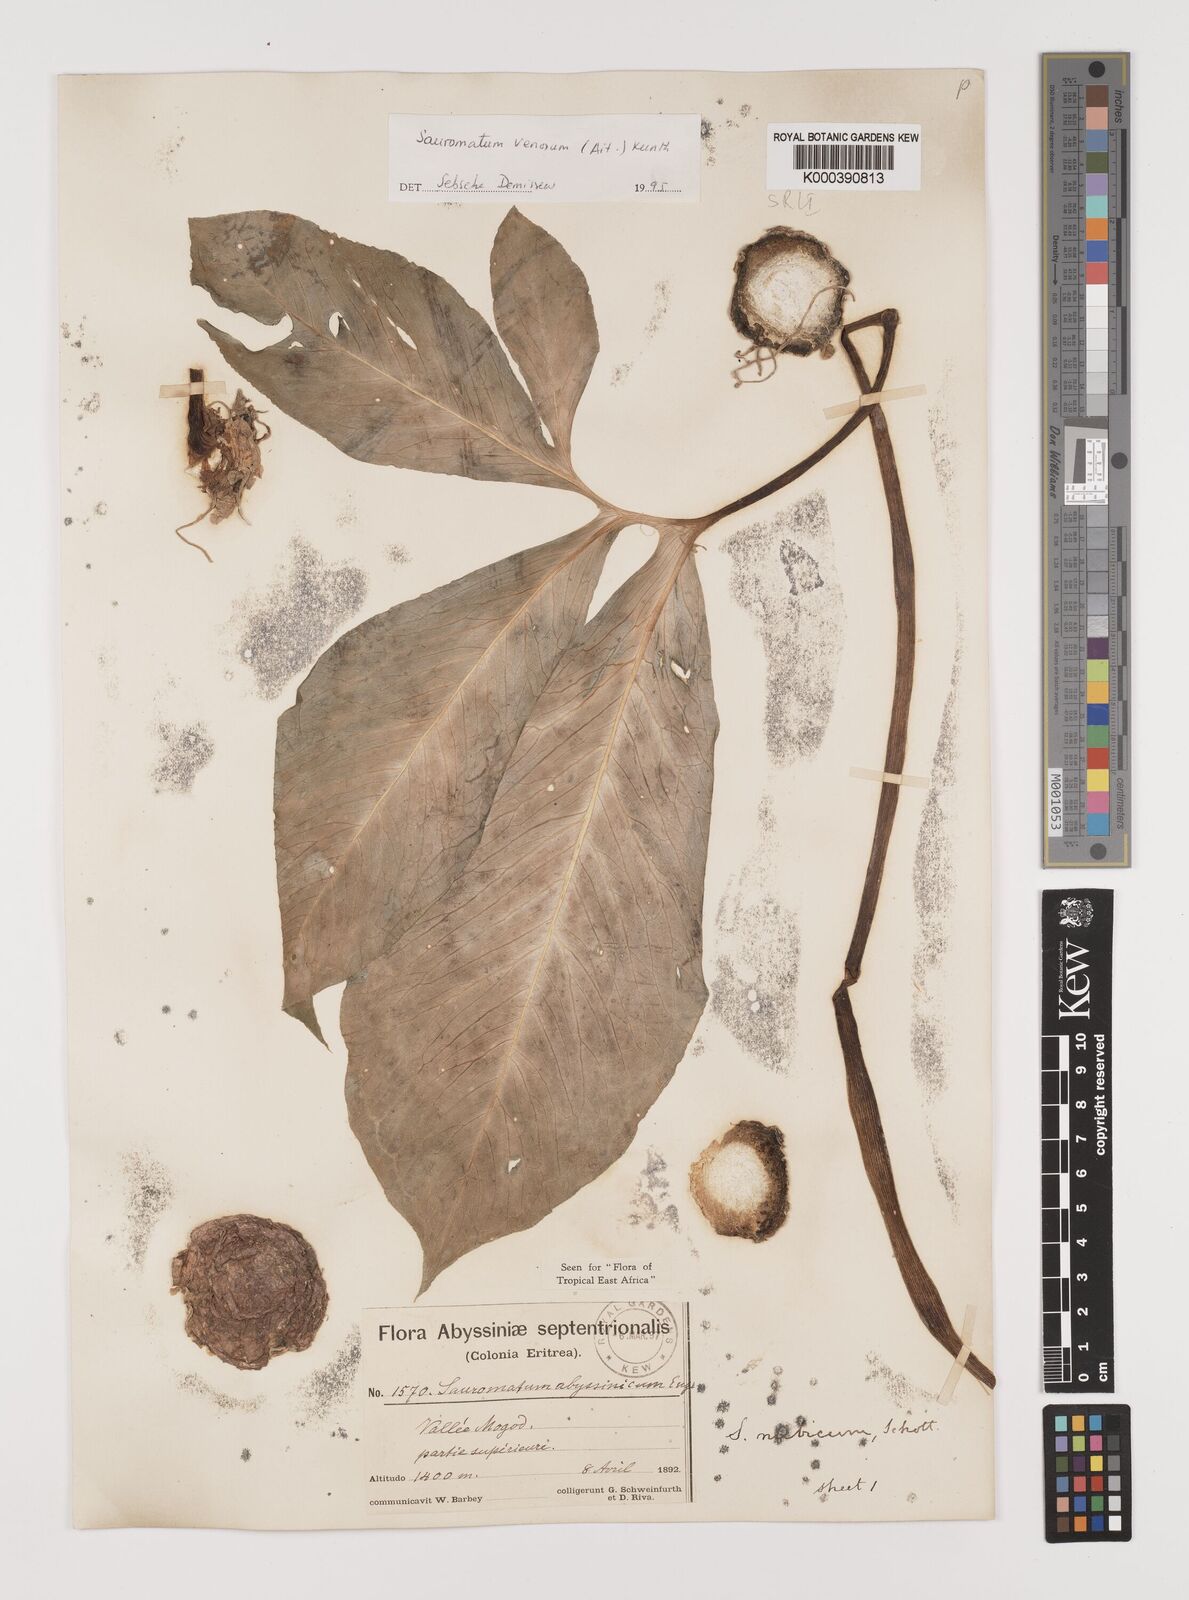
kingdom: Plantae
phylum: Tracheophyta
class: Liliopsida
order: Alismatales
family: Araceae
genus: Sauromatum
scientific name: Sauromatum venosum
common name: Voodoo lily
